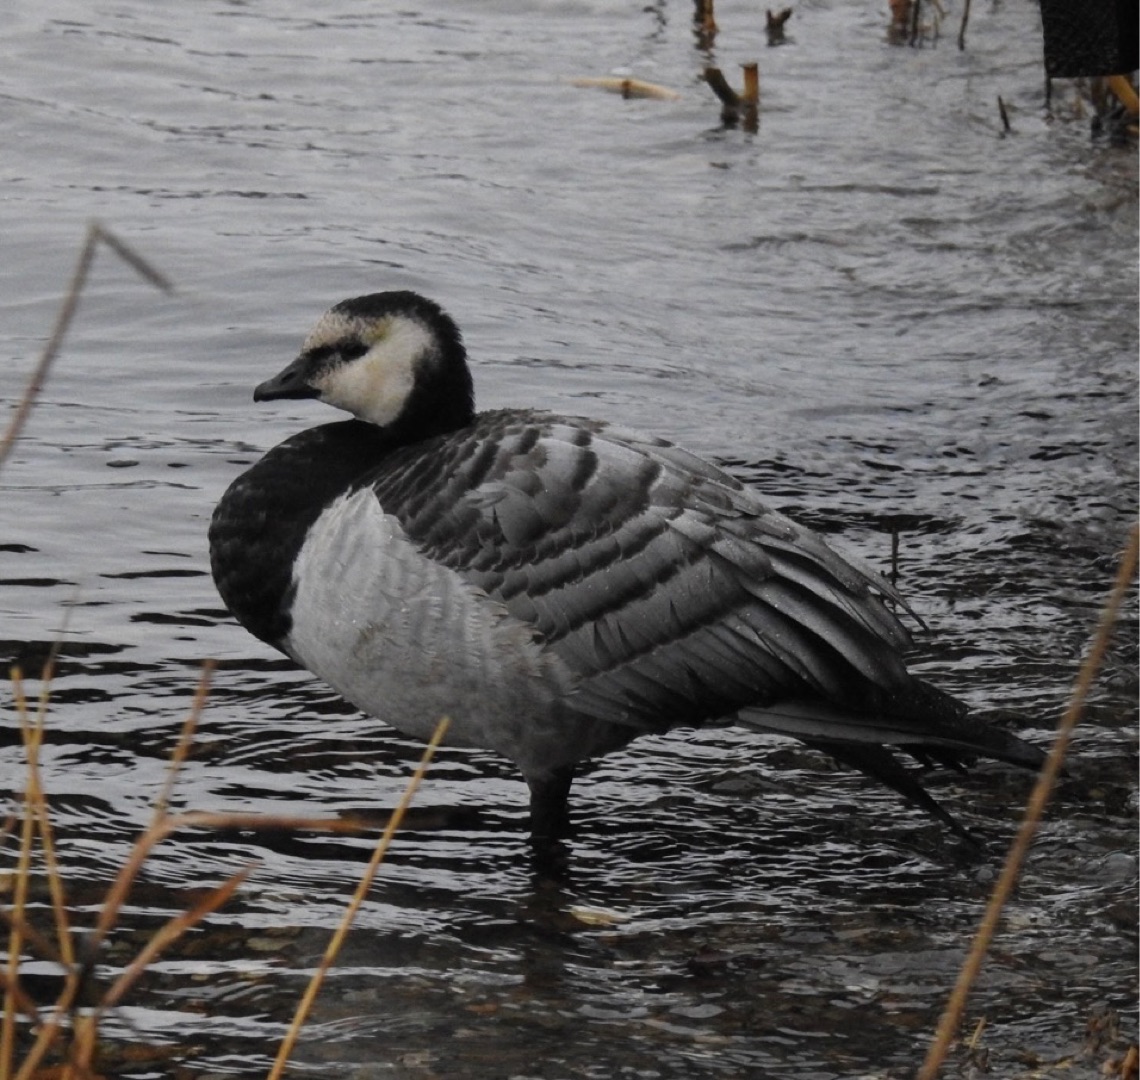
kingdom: Animalia
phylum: Chordata
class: Aves
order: Anseriformes
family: Anatidae
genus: Branta
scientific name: Branta leucopsis
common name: Bramgås
